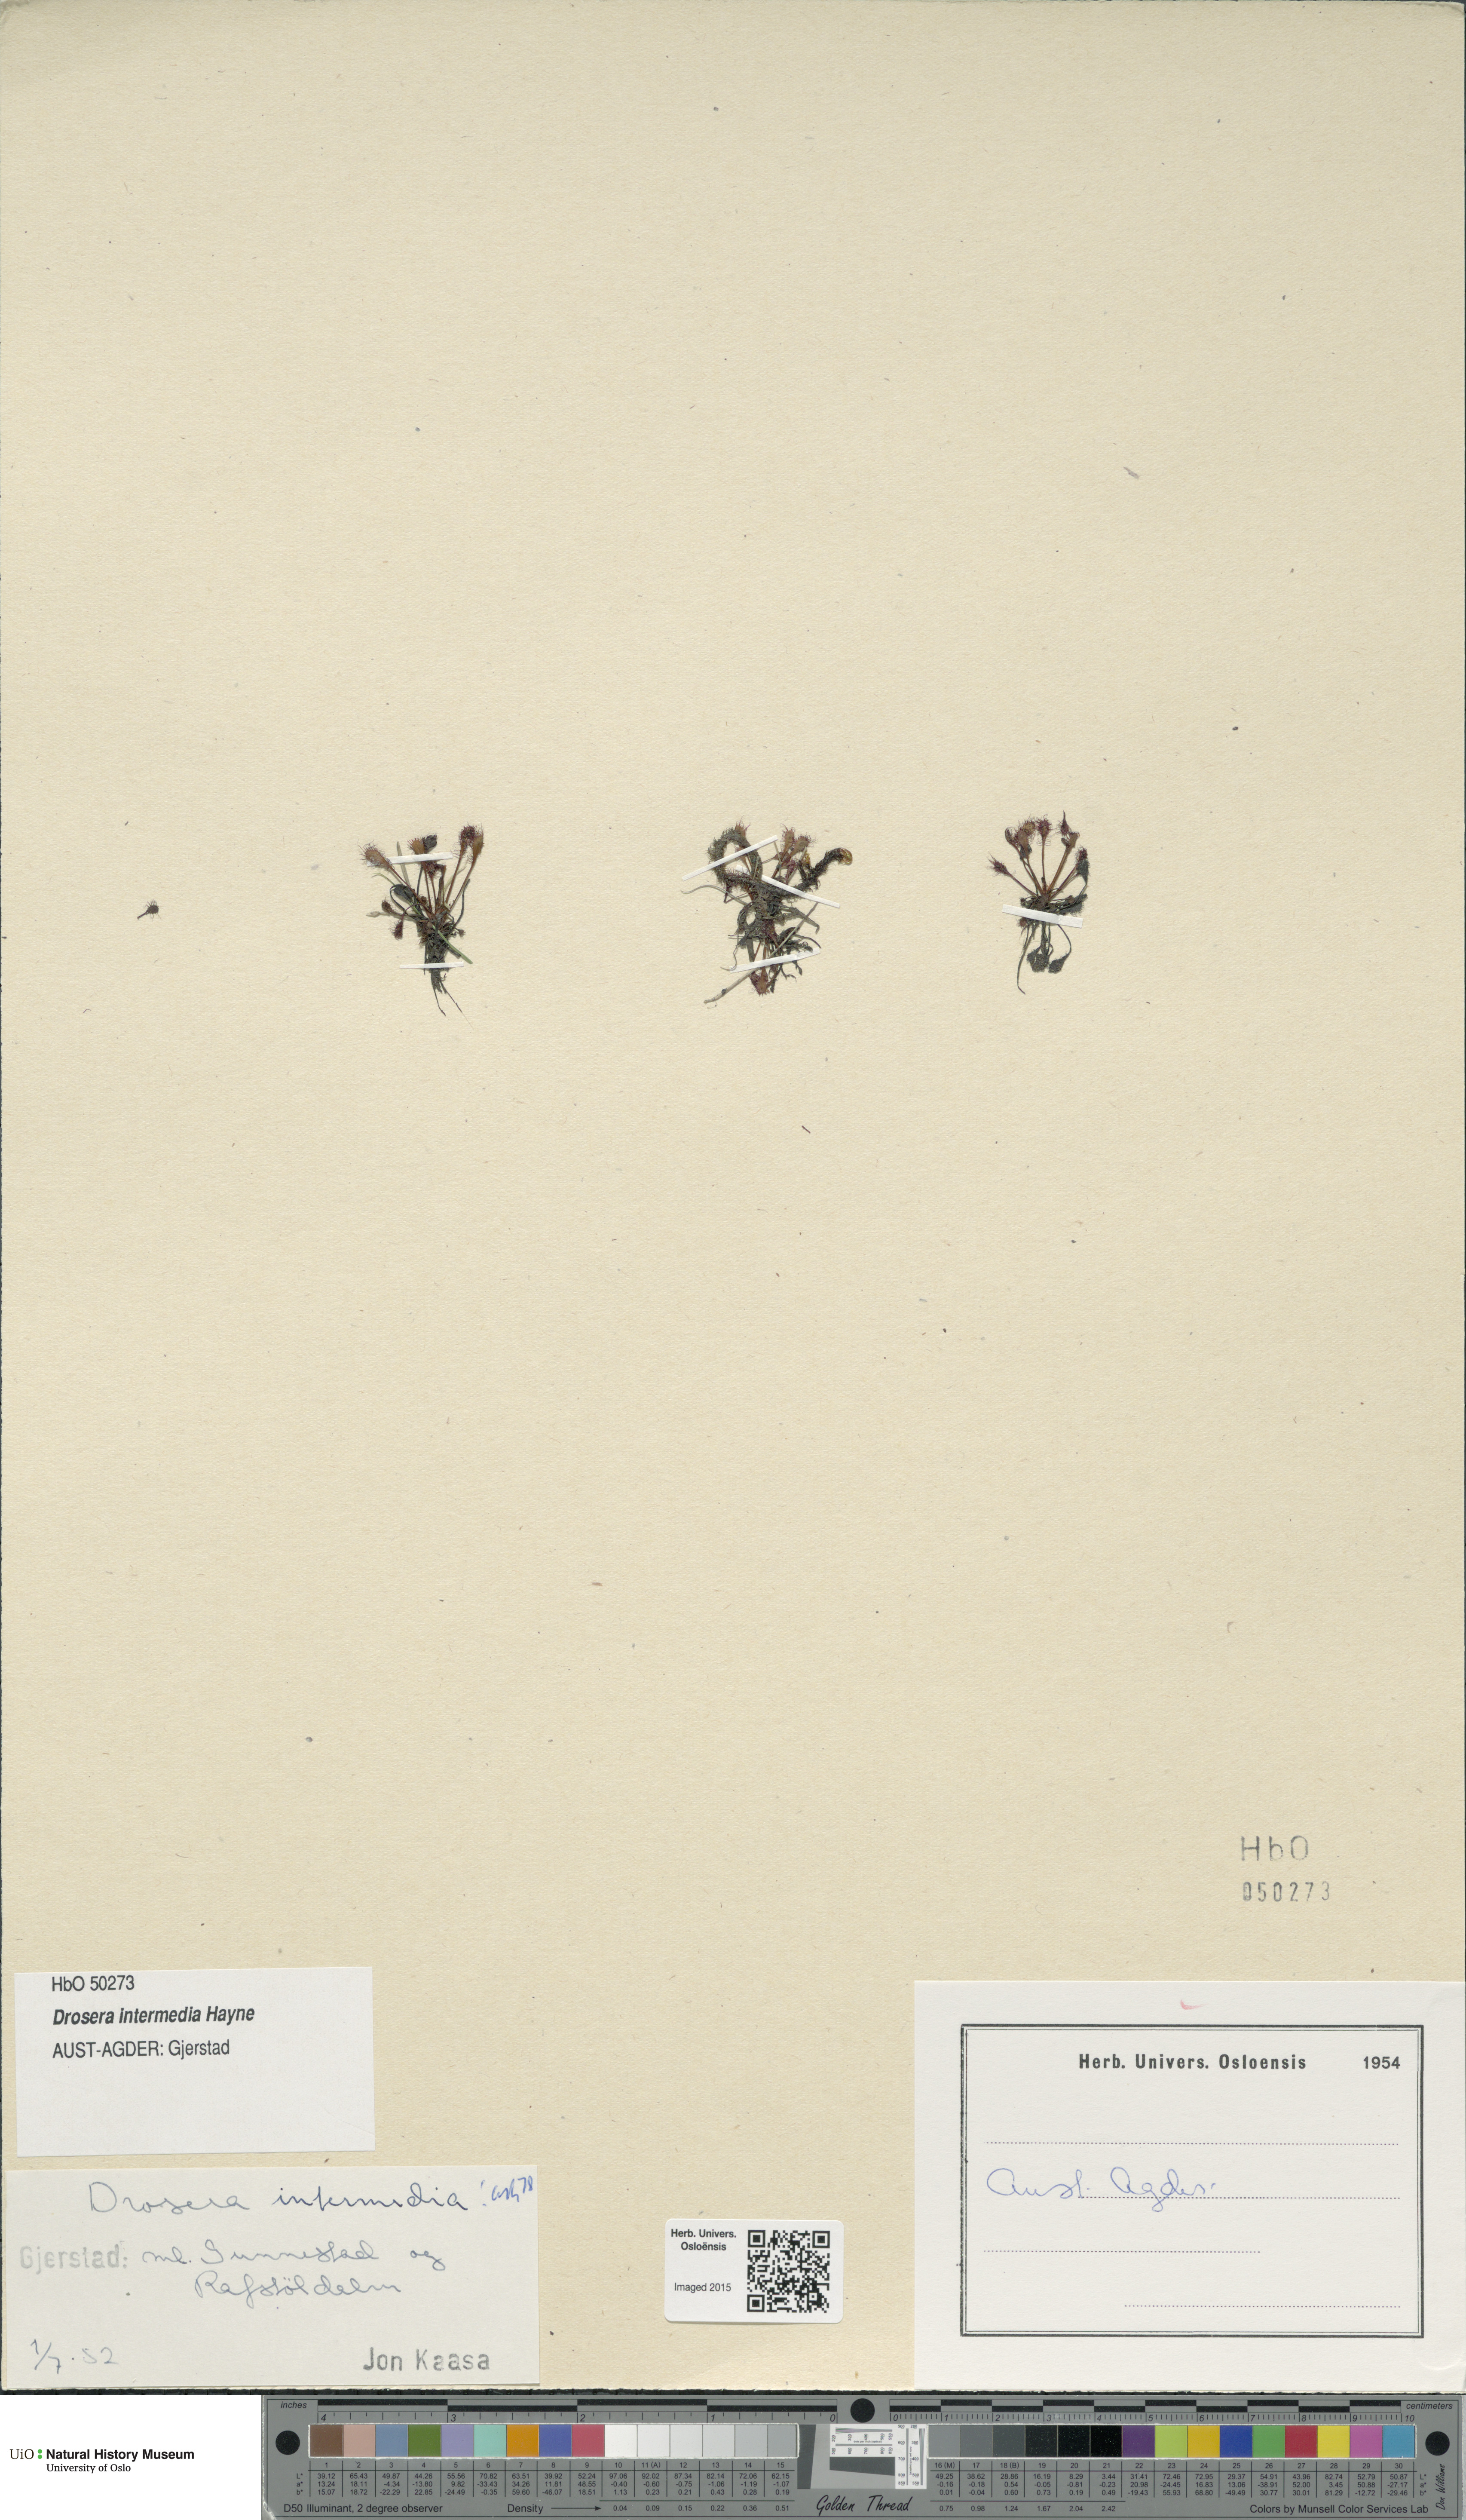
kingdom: Plantae
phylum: Tracheophyta
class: Magnoliopsida
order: Caryophyllales
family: Droseraceae
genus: Drosera
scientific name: Drosera intermedia
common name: Oblong-leaved sundew
